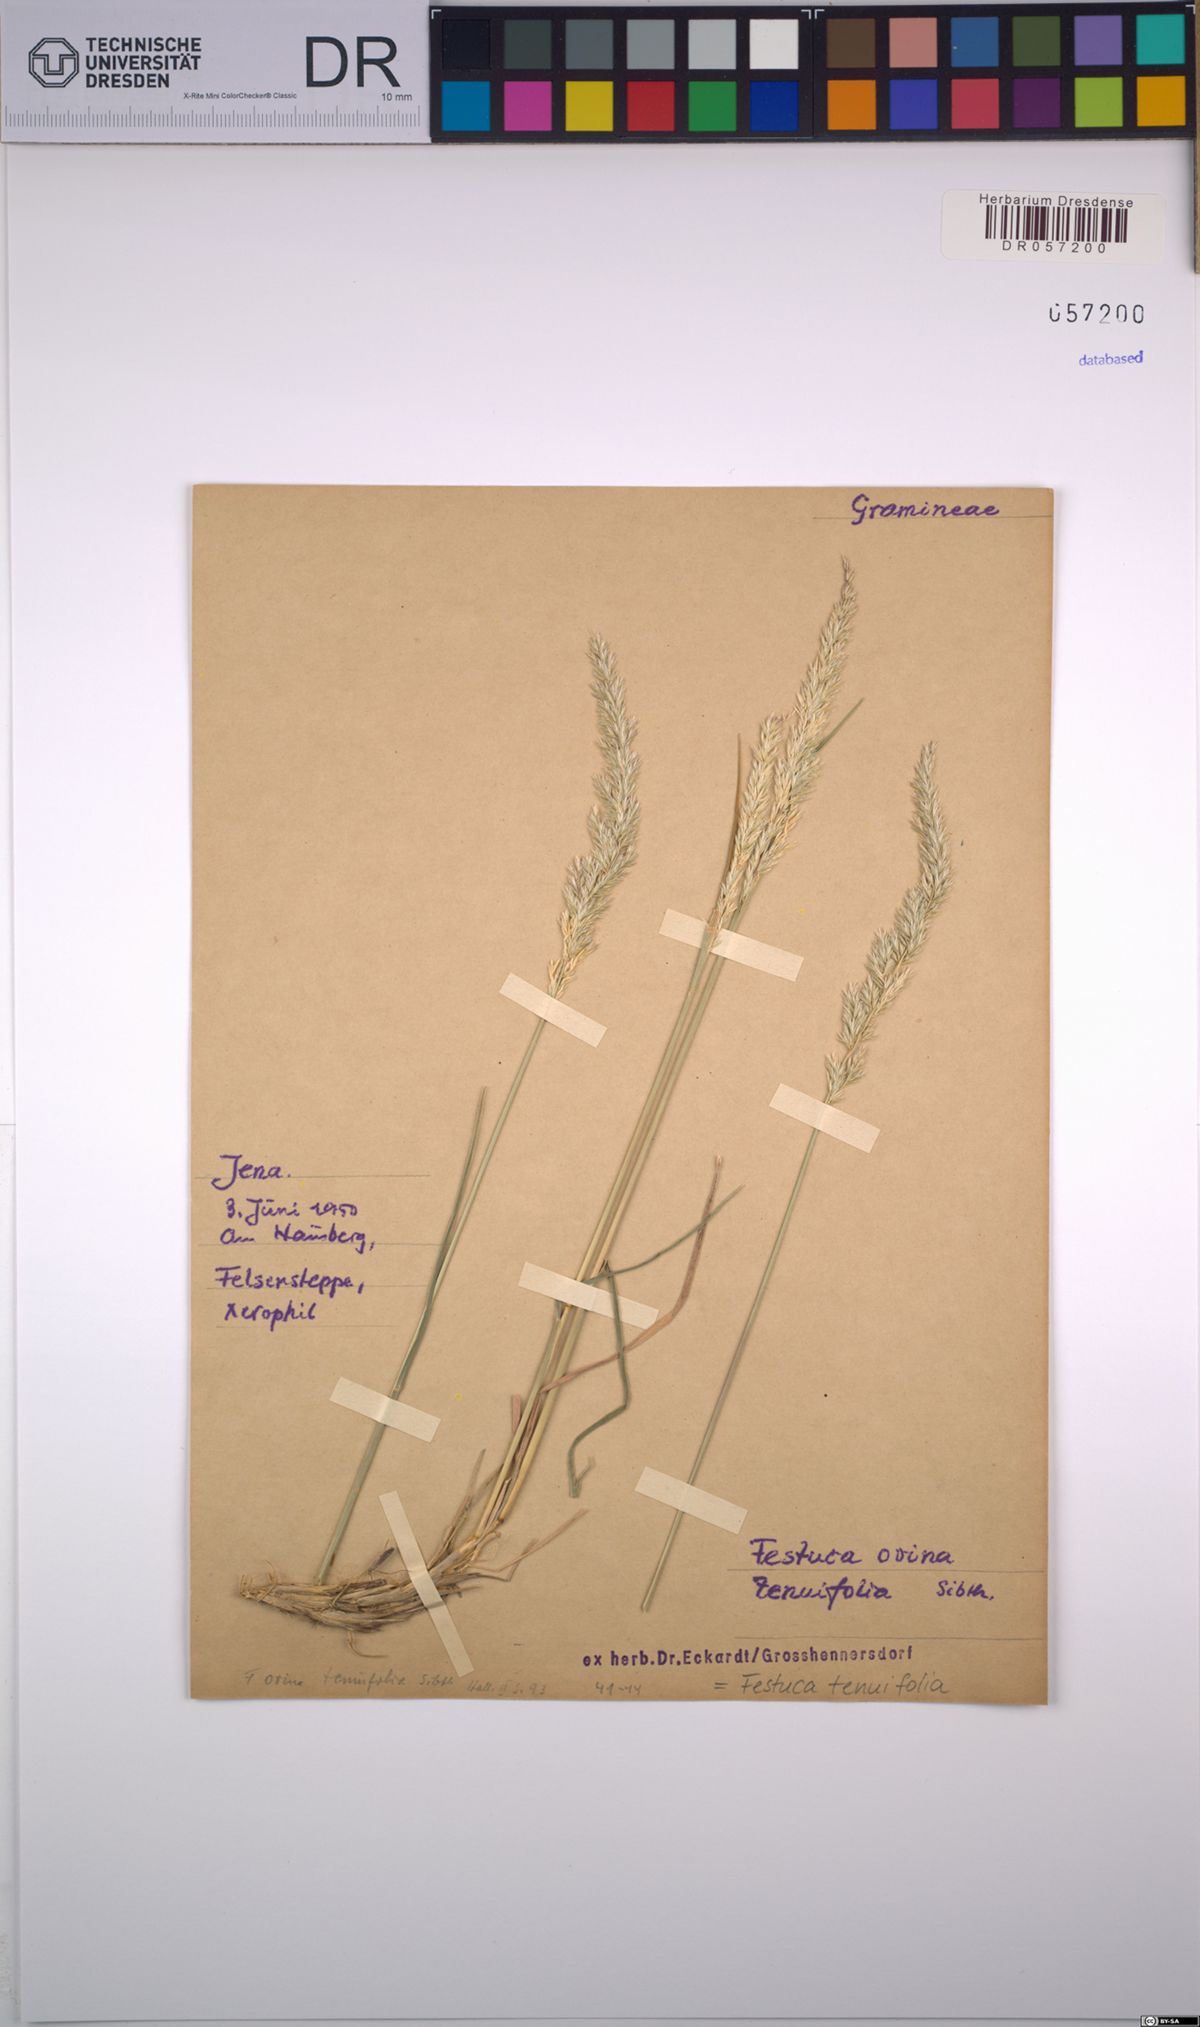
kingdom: Plantae
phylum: Tracheophyta
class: Liliopsida
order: Poales
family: Poaceae
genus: Festuca
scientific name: Festuca filiformis
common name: Fine-leaved sheep's-fescue
